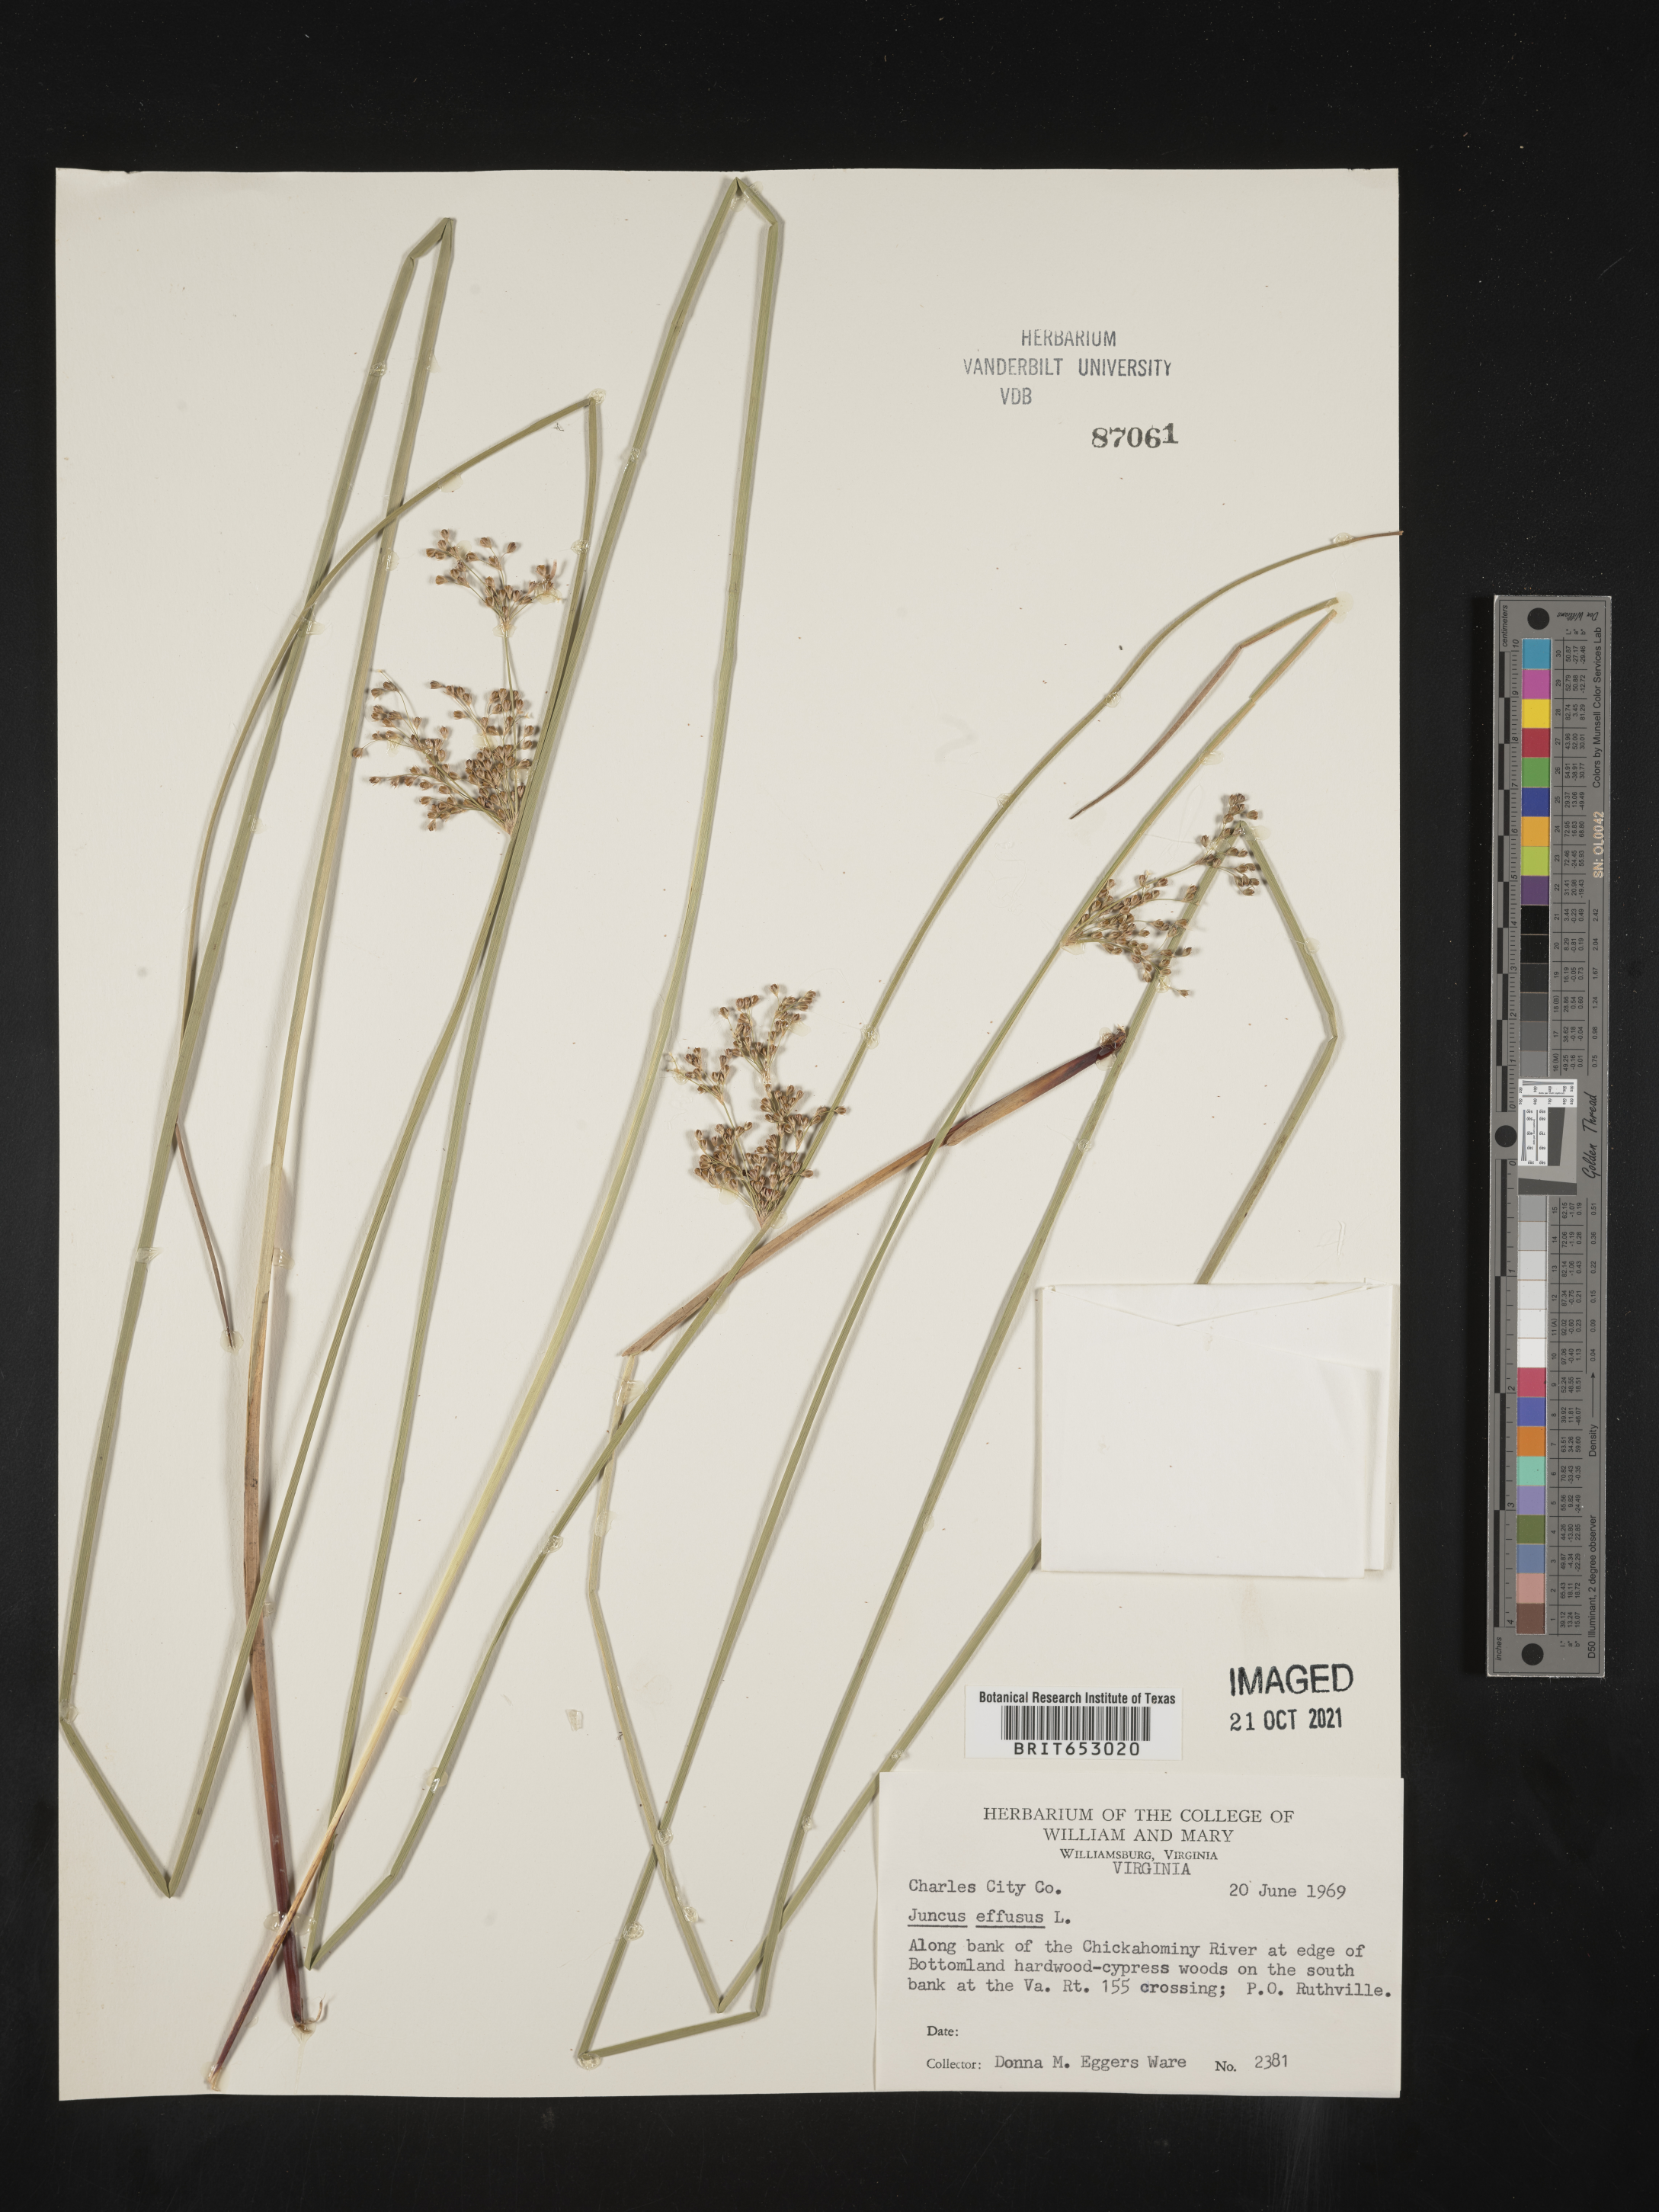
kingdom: Plantae
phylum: Tracheophyta
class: Liliopsida
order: Poales
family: Juncaceae
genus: Juncus
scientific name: Juncus effusus
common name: Soft rush
